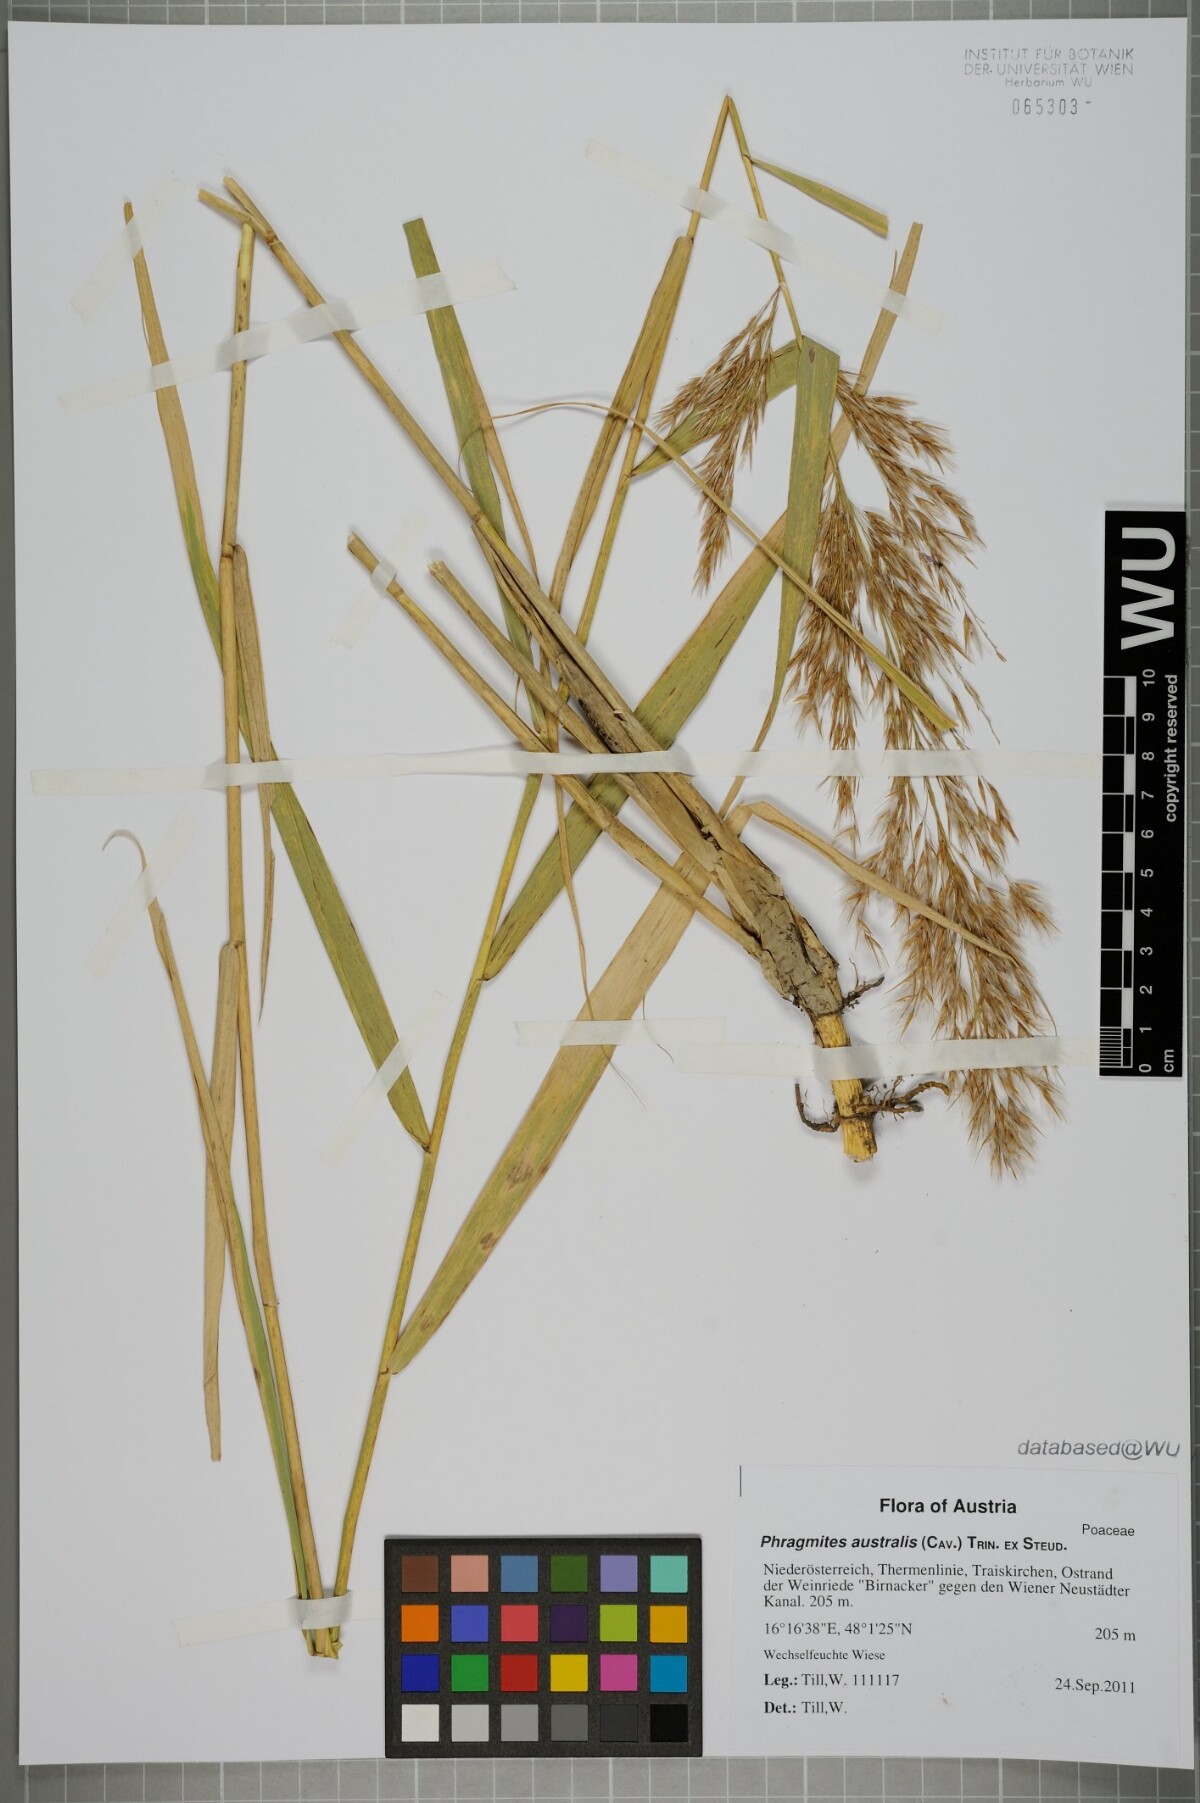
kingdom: Plantae
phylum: Tracheophyta
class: Liliopsida
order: Poales
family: Poaceae
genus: Phragmites
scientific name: Phragmites australis
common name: Common reed
